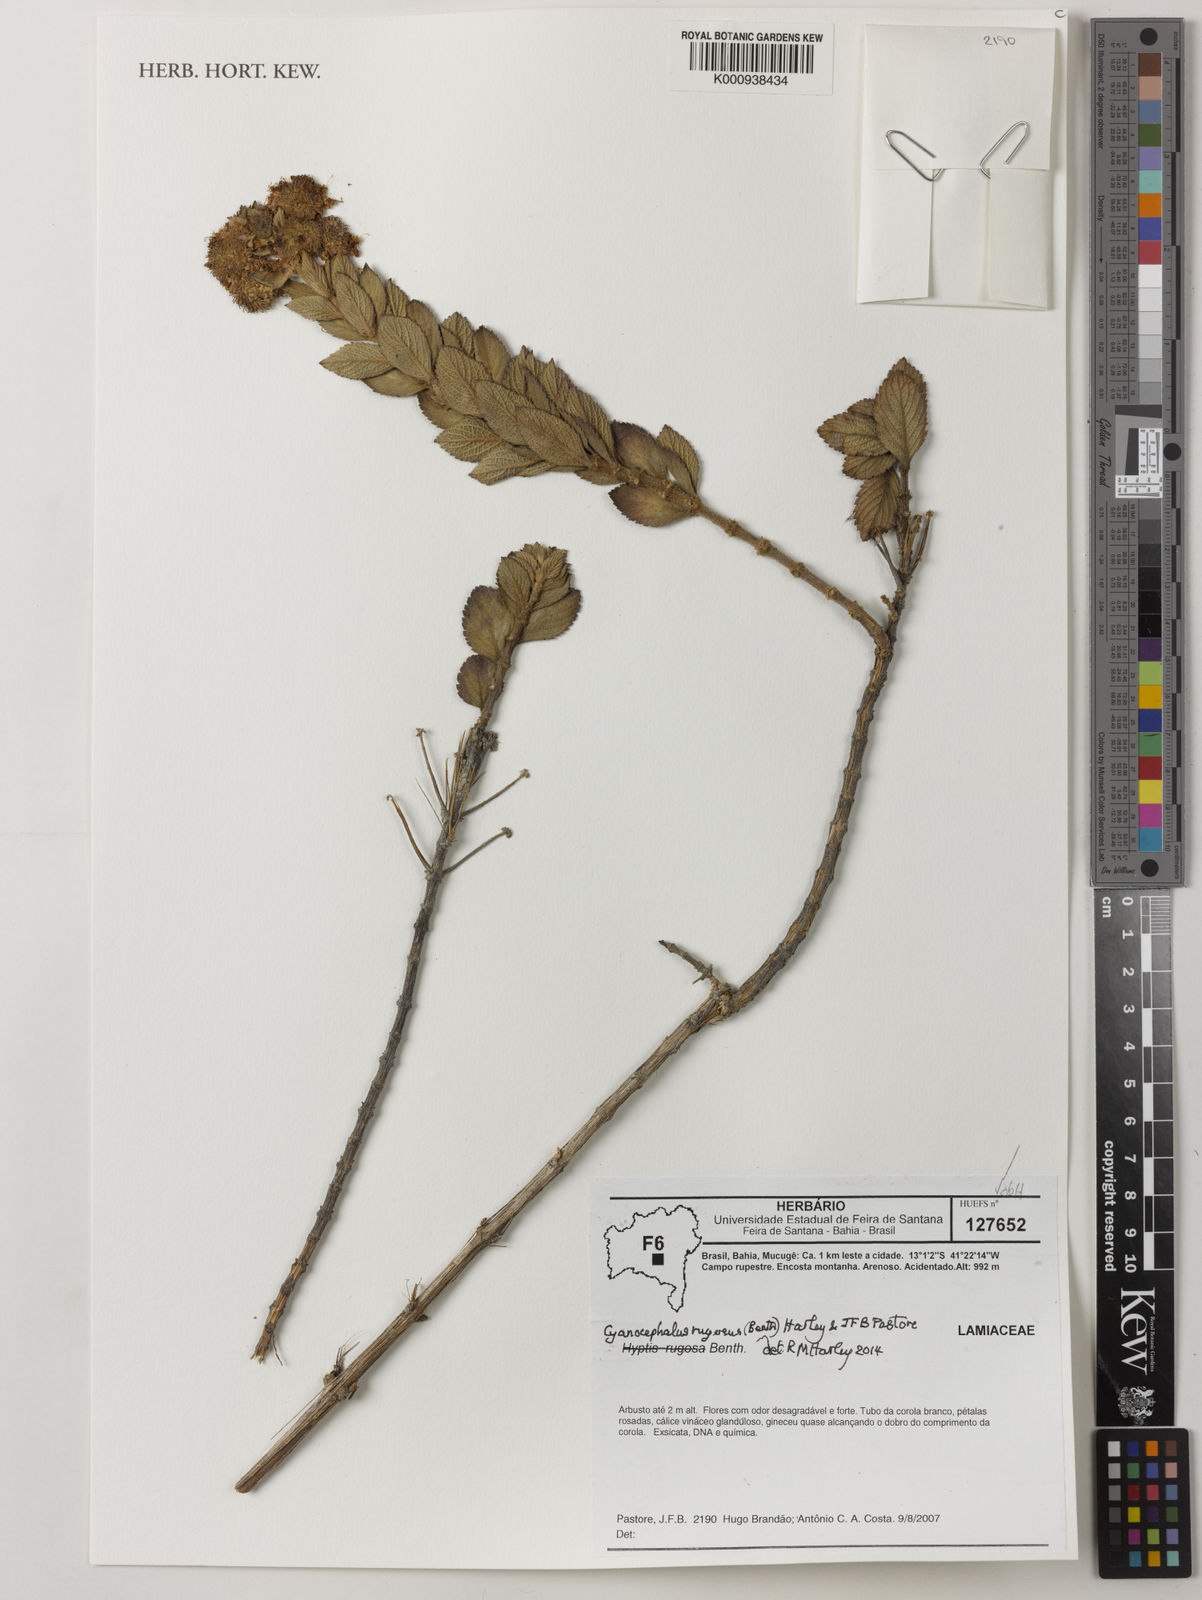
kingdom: Plantae
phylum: Tracheophyta
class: Magnoliopsida
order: Lamiales
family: Lamiaceae
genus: Cyanocephalus
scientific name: Cyanocephalus rugosus
